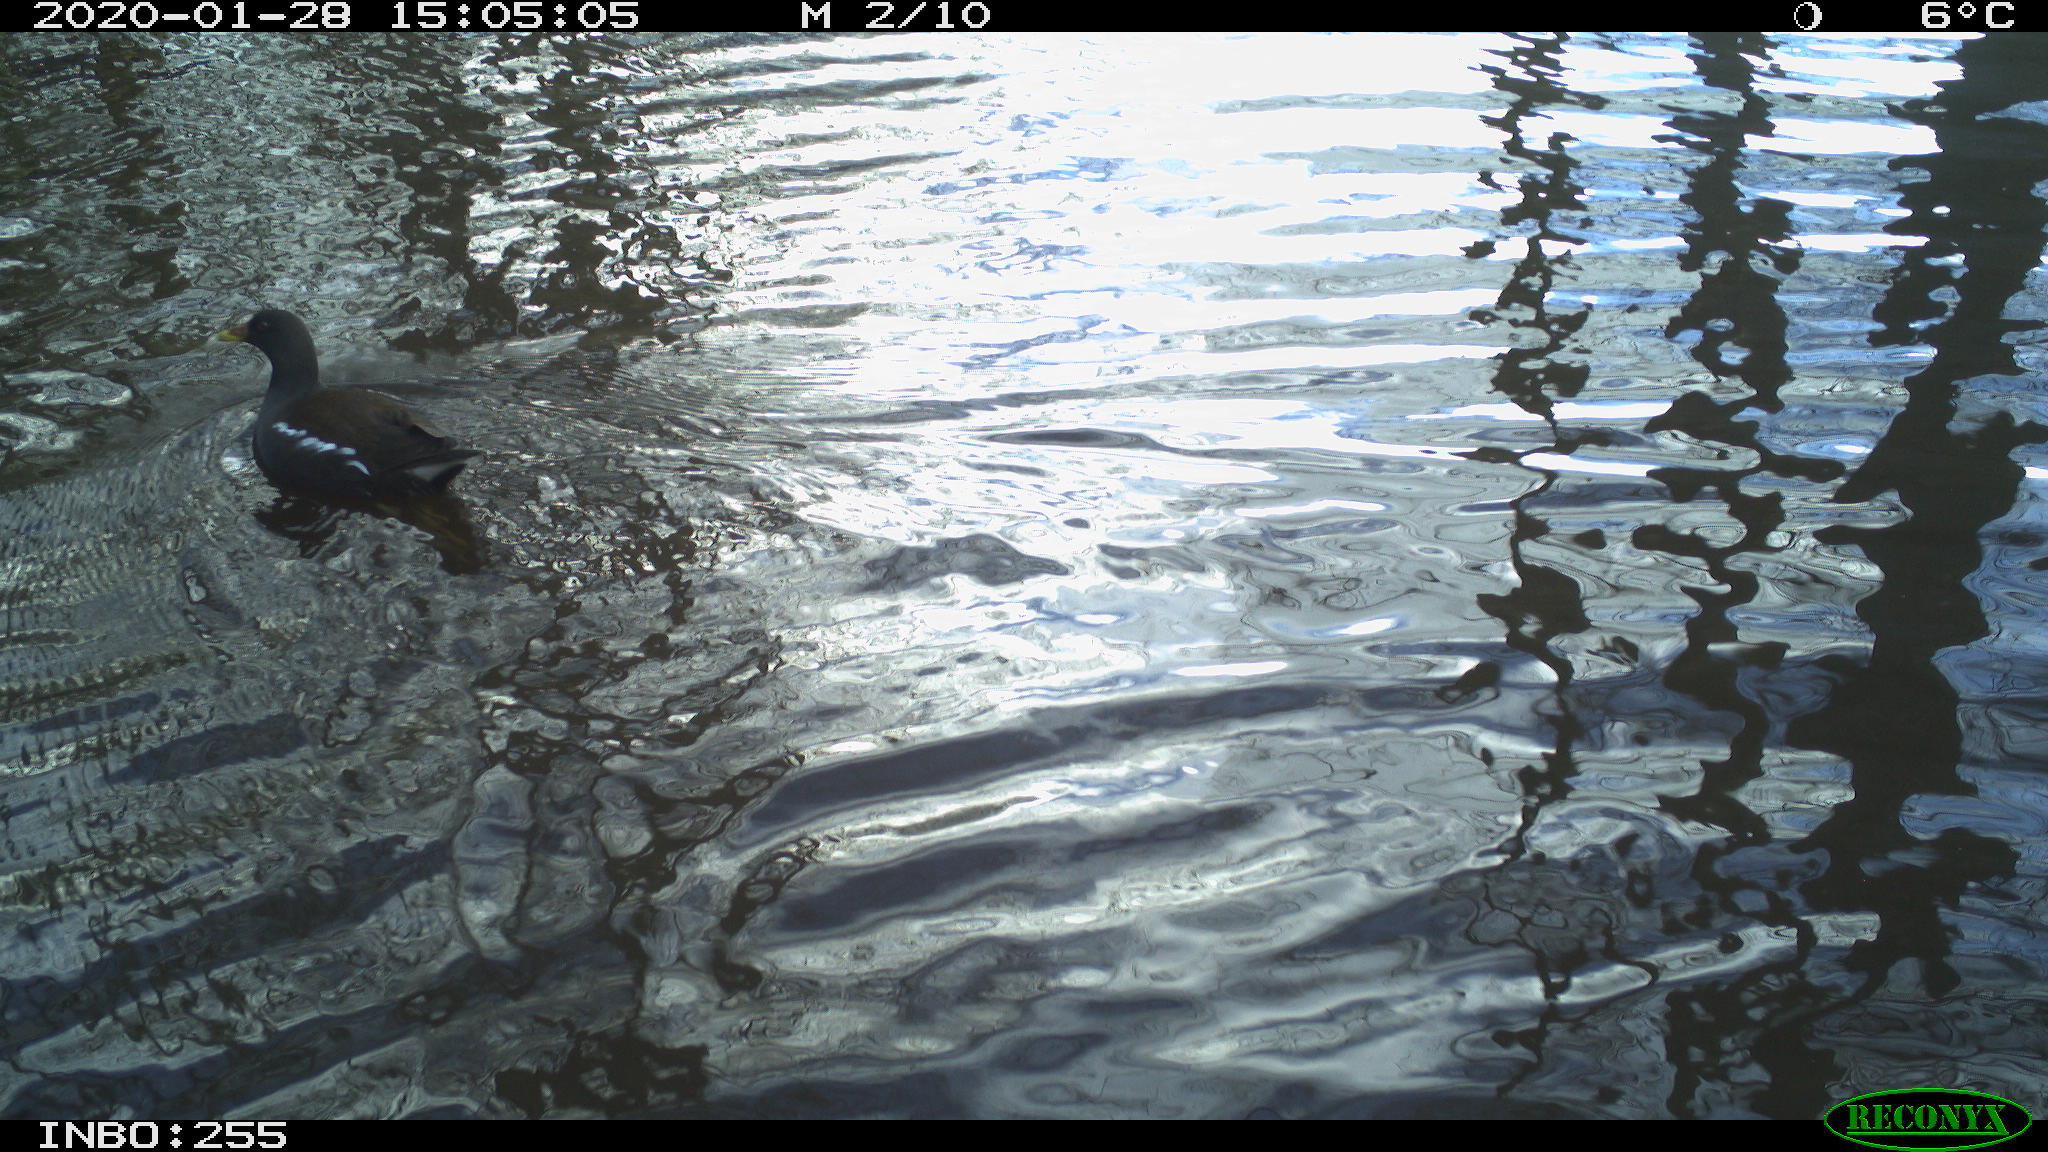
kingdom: Animalia
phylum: Chordata
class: Aves
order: Gruiformes
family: Rallidae
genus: Gallinula
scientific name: Gallinula chloropus
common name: Common moorhen
